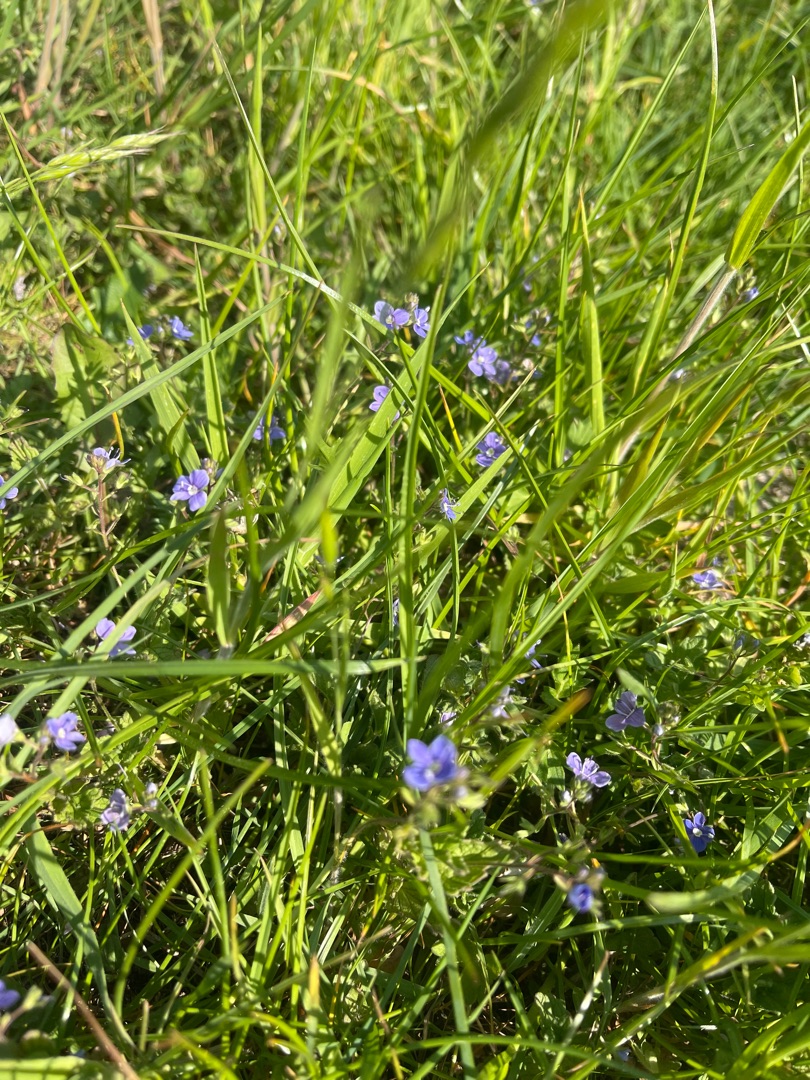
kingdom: Plantae
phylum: Tracheophyta
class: Magnoliopsida
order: Lamiales
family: Plantaginaceae
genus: Veronica
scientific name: Veronica chamaedrys
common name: Tveskægget ærenpris
